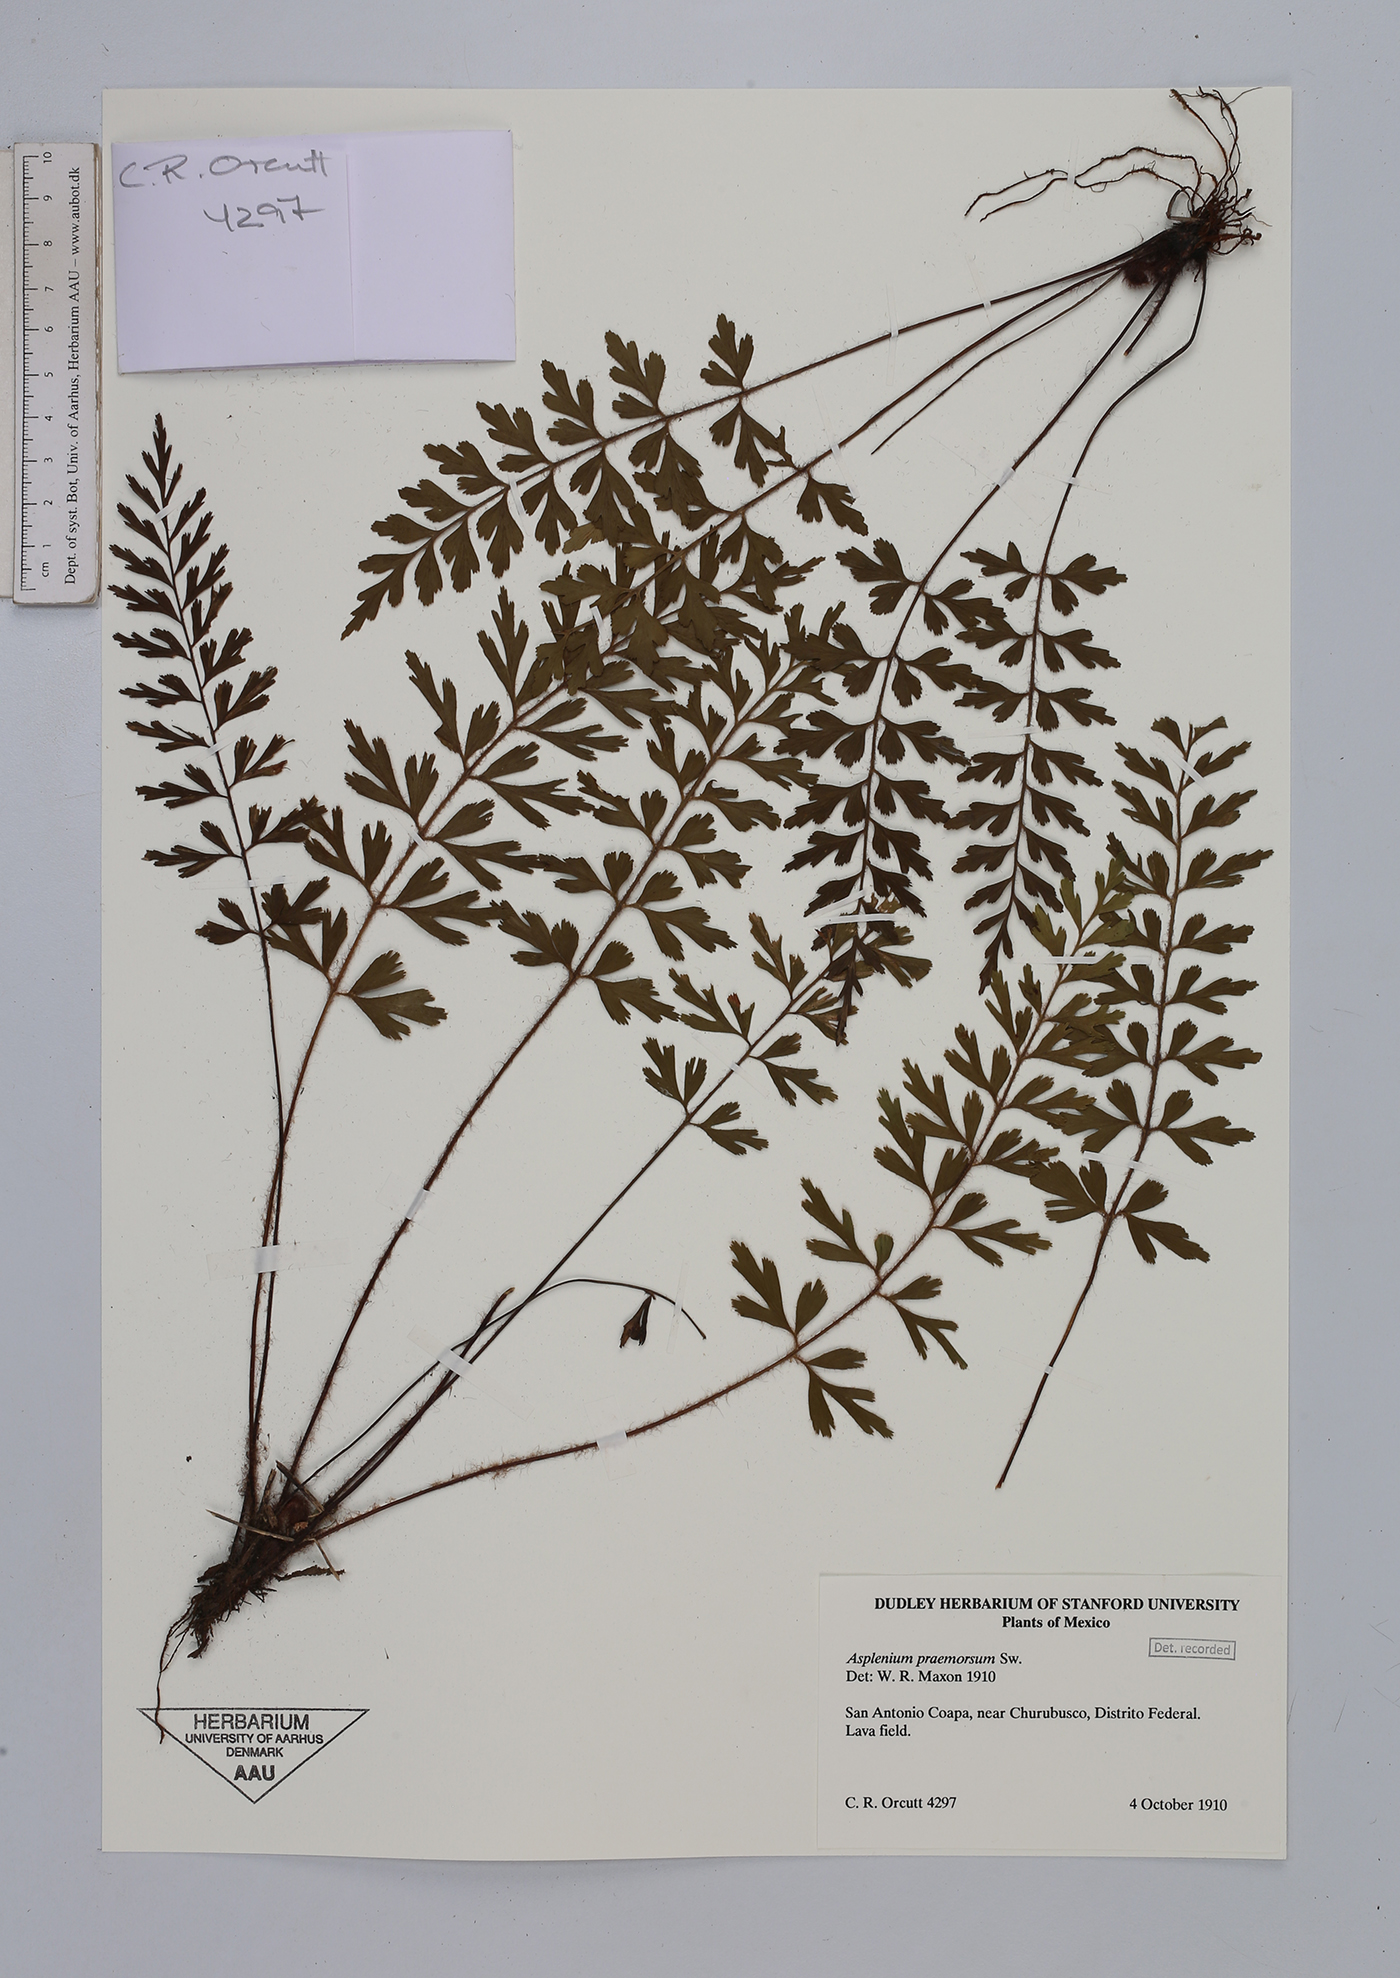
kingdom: Plantae
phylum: Tracheophyta
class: Polypodiopsida
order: Polypodiales
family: Aspleniaceae
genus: Asplenium
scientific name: Asplenium praemorsum
